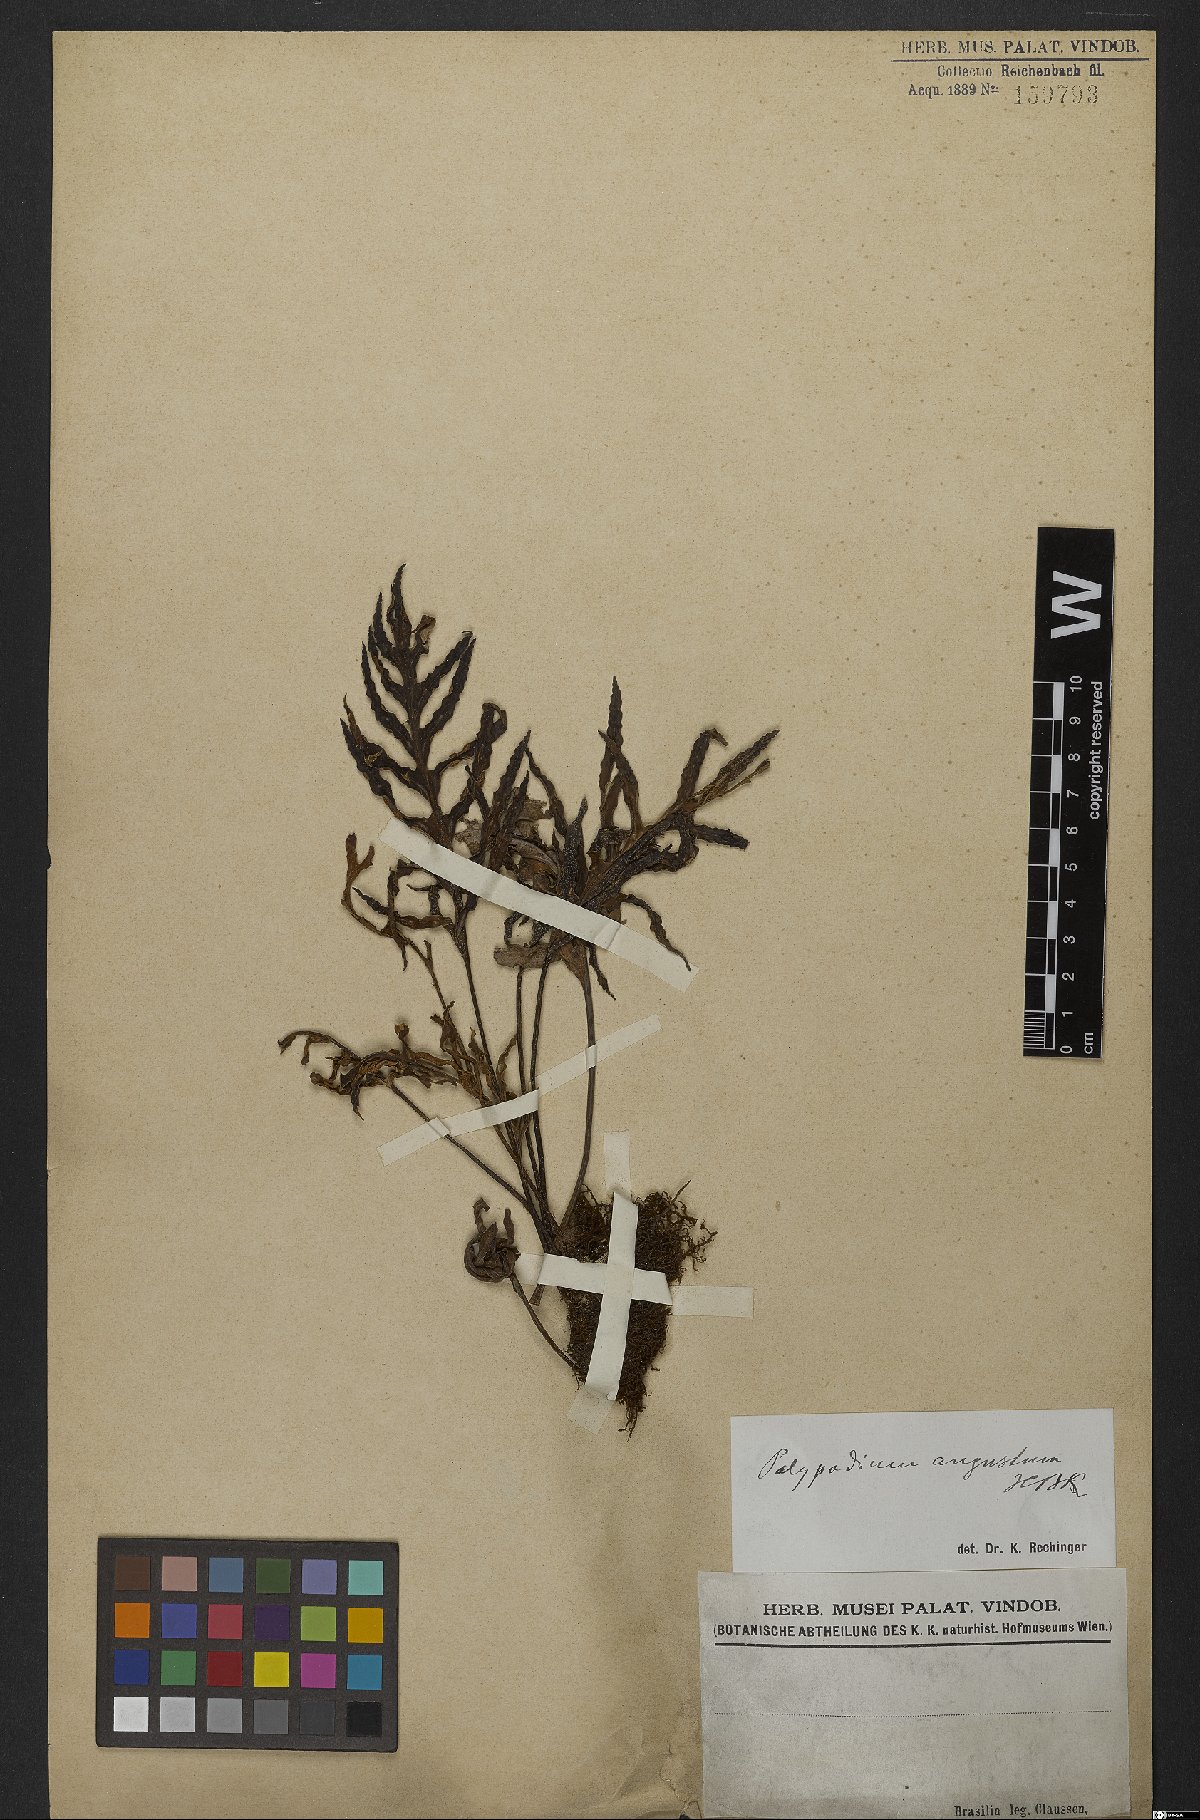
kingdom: Plantae
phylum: Tracheophyta
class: Polypodiopsida
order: Polypodiales
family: Polypodiaceae
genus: Pleopeltis
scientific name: Pleopeltis angusta
